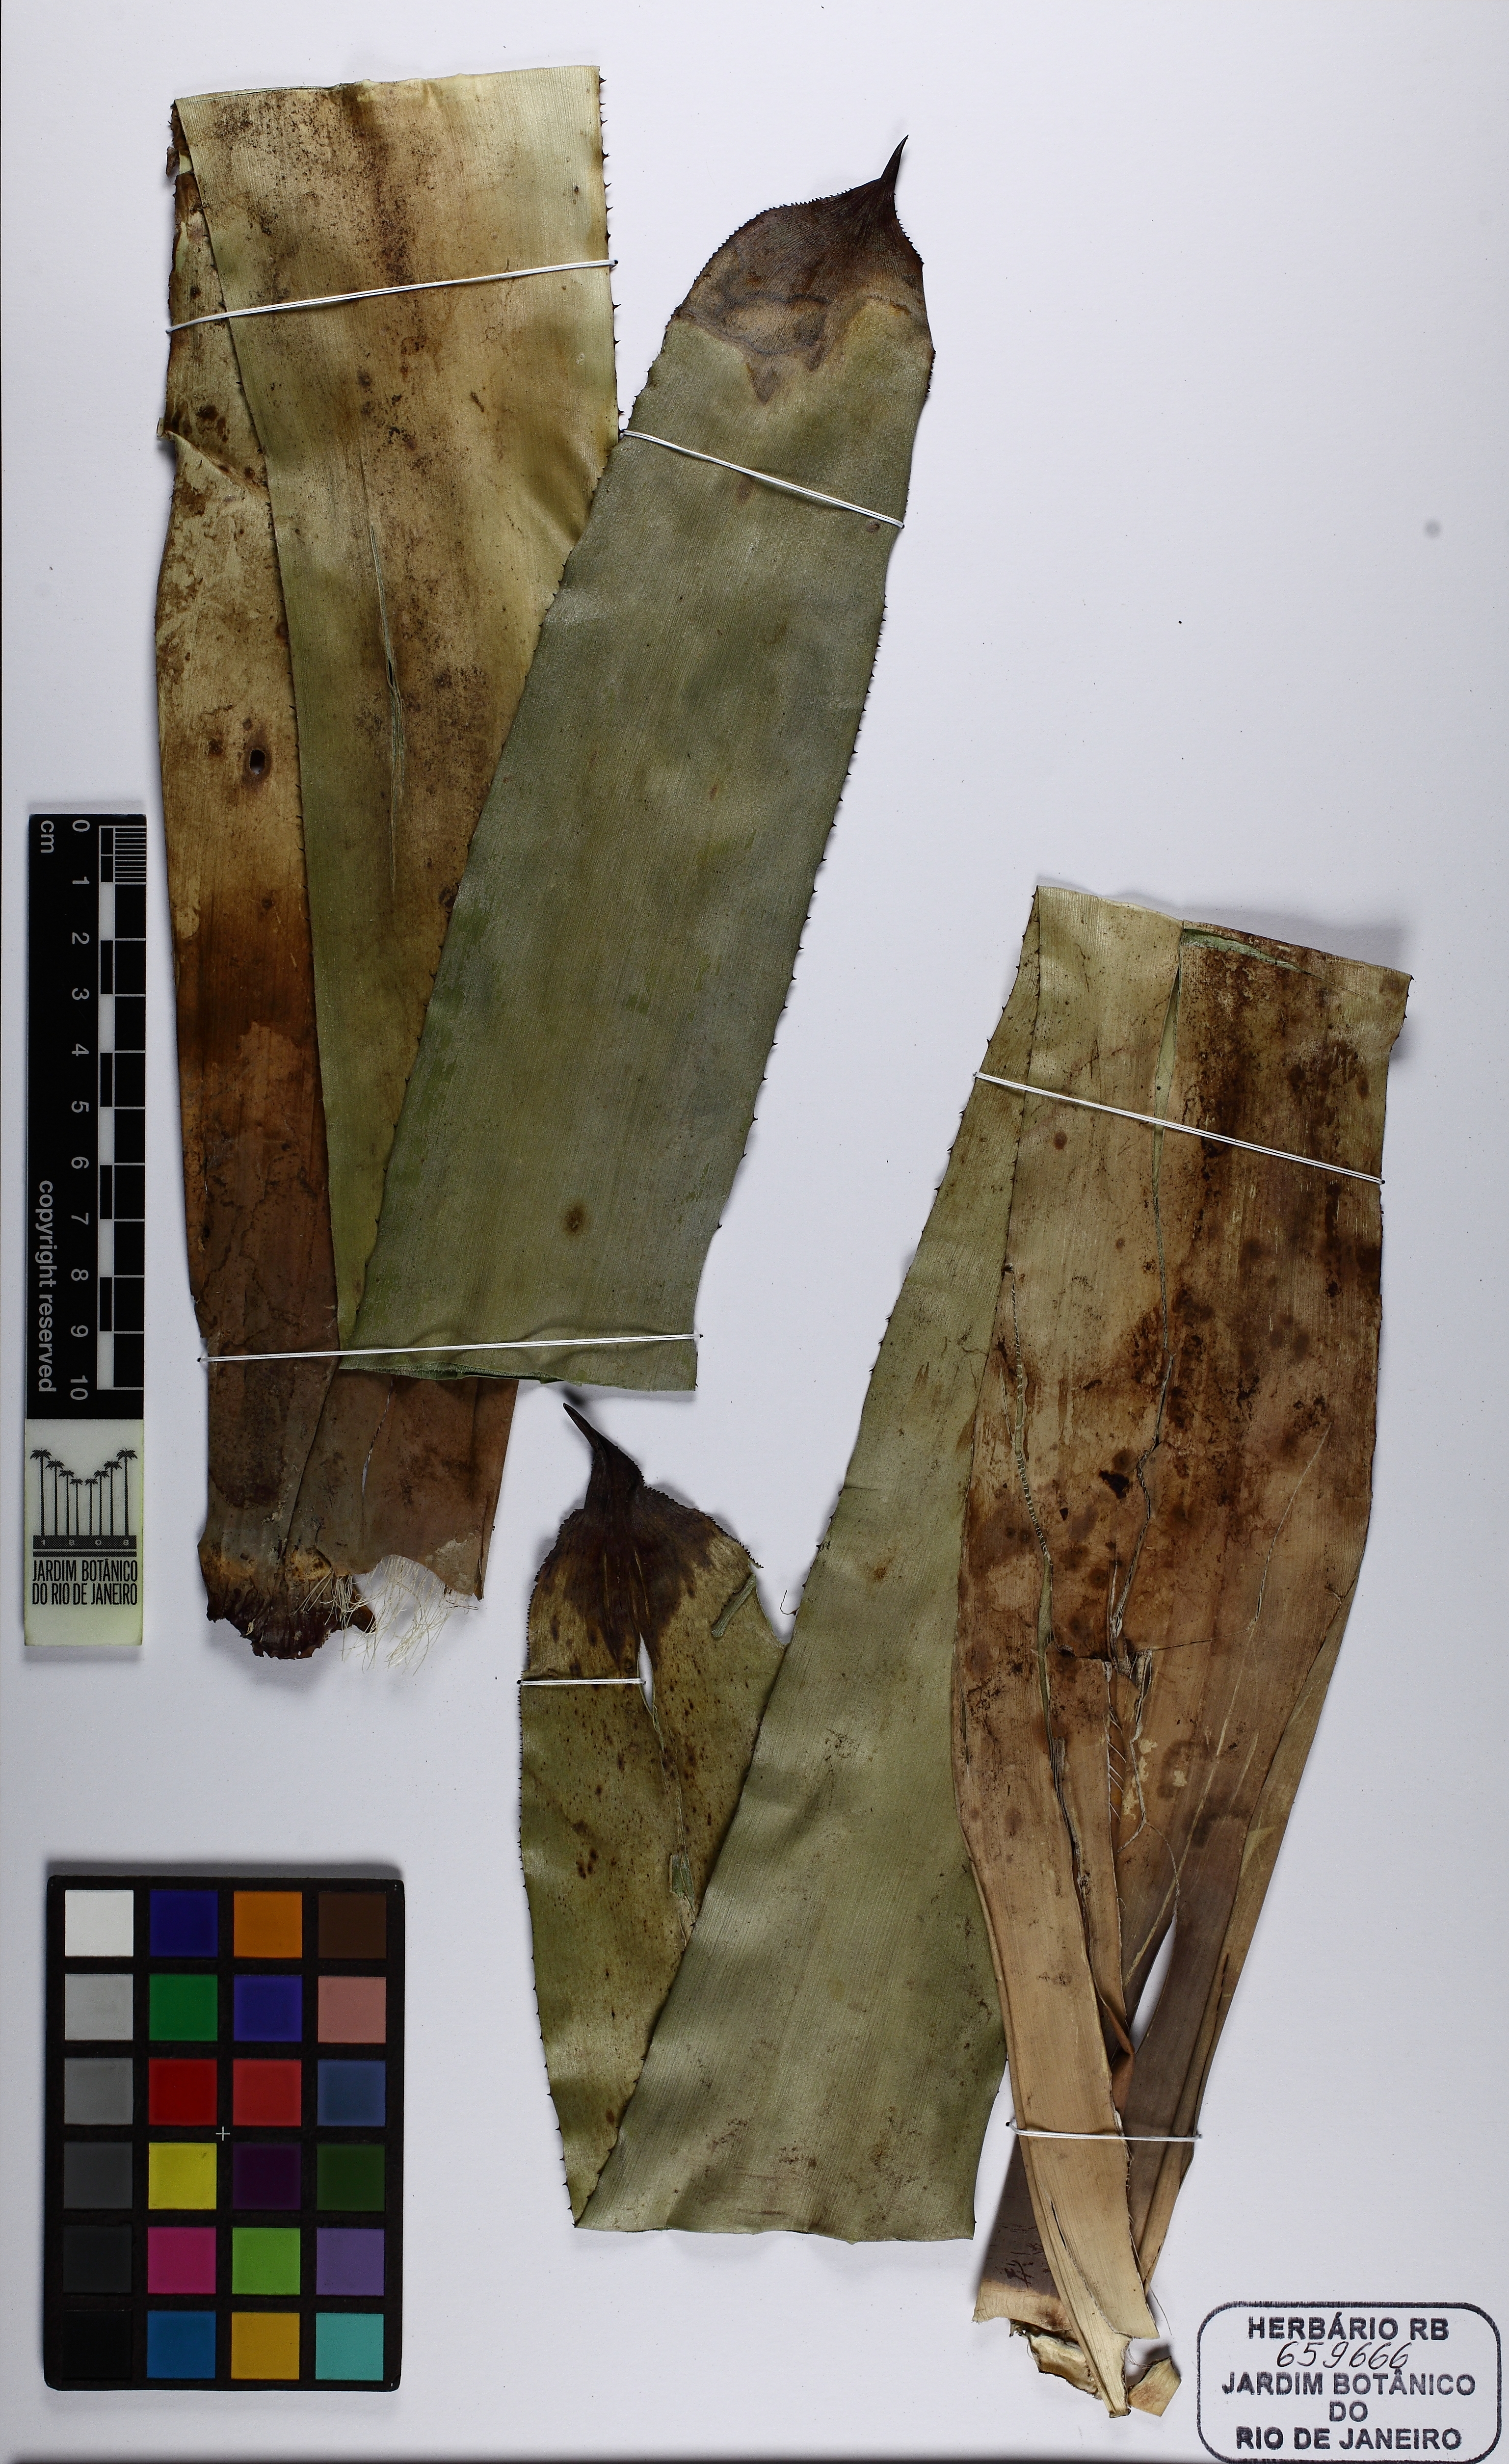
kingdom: Plantae
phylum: Tracheophyta
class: Liliopsida
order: Poales
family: Bromeliaceae
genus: Wittmackia
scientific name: Wittmackia patentissima
